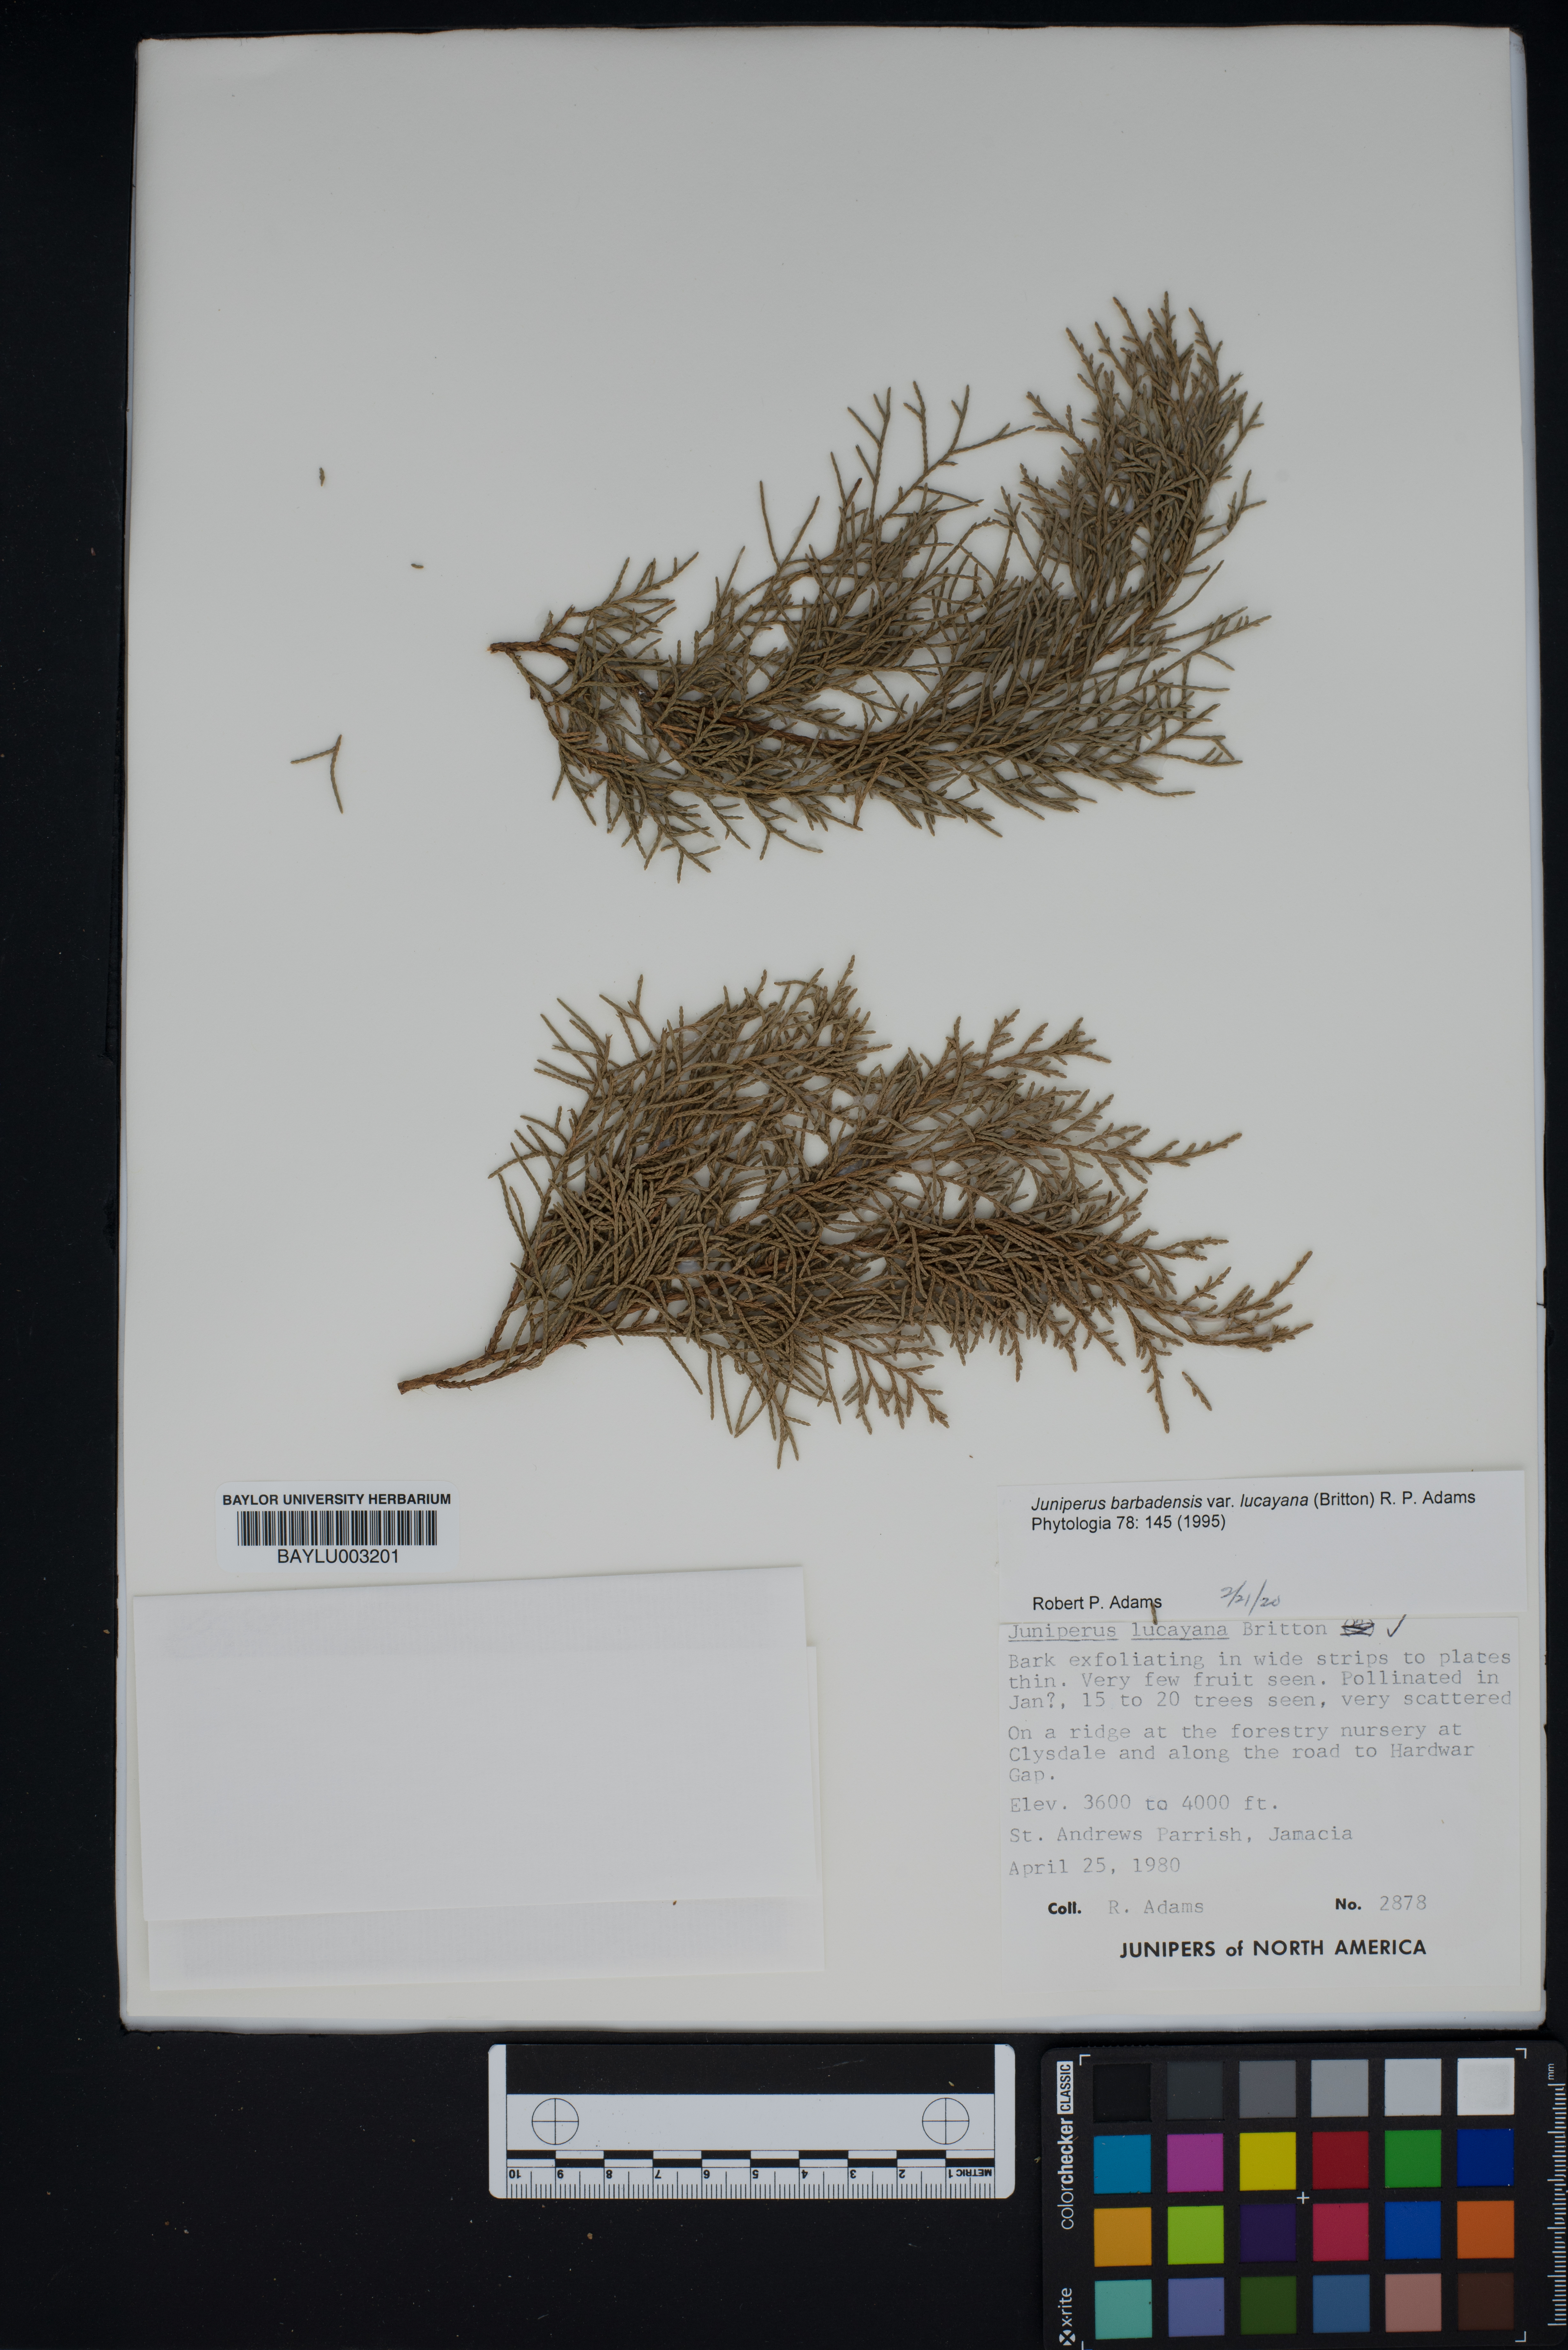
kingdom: Plantae
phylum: Tracheophyta
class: Pinopsida
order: Pinales
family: Cupressaceae
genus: Juniperus
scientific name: Juniperus barbadensis
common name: West indies juniper
